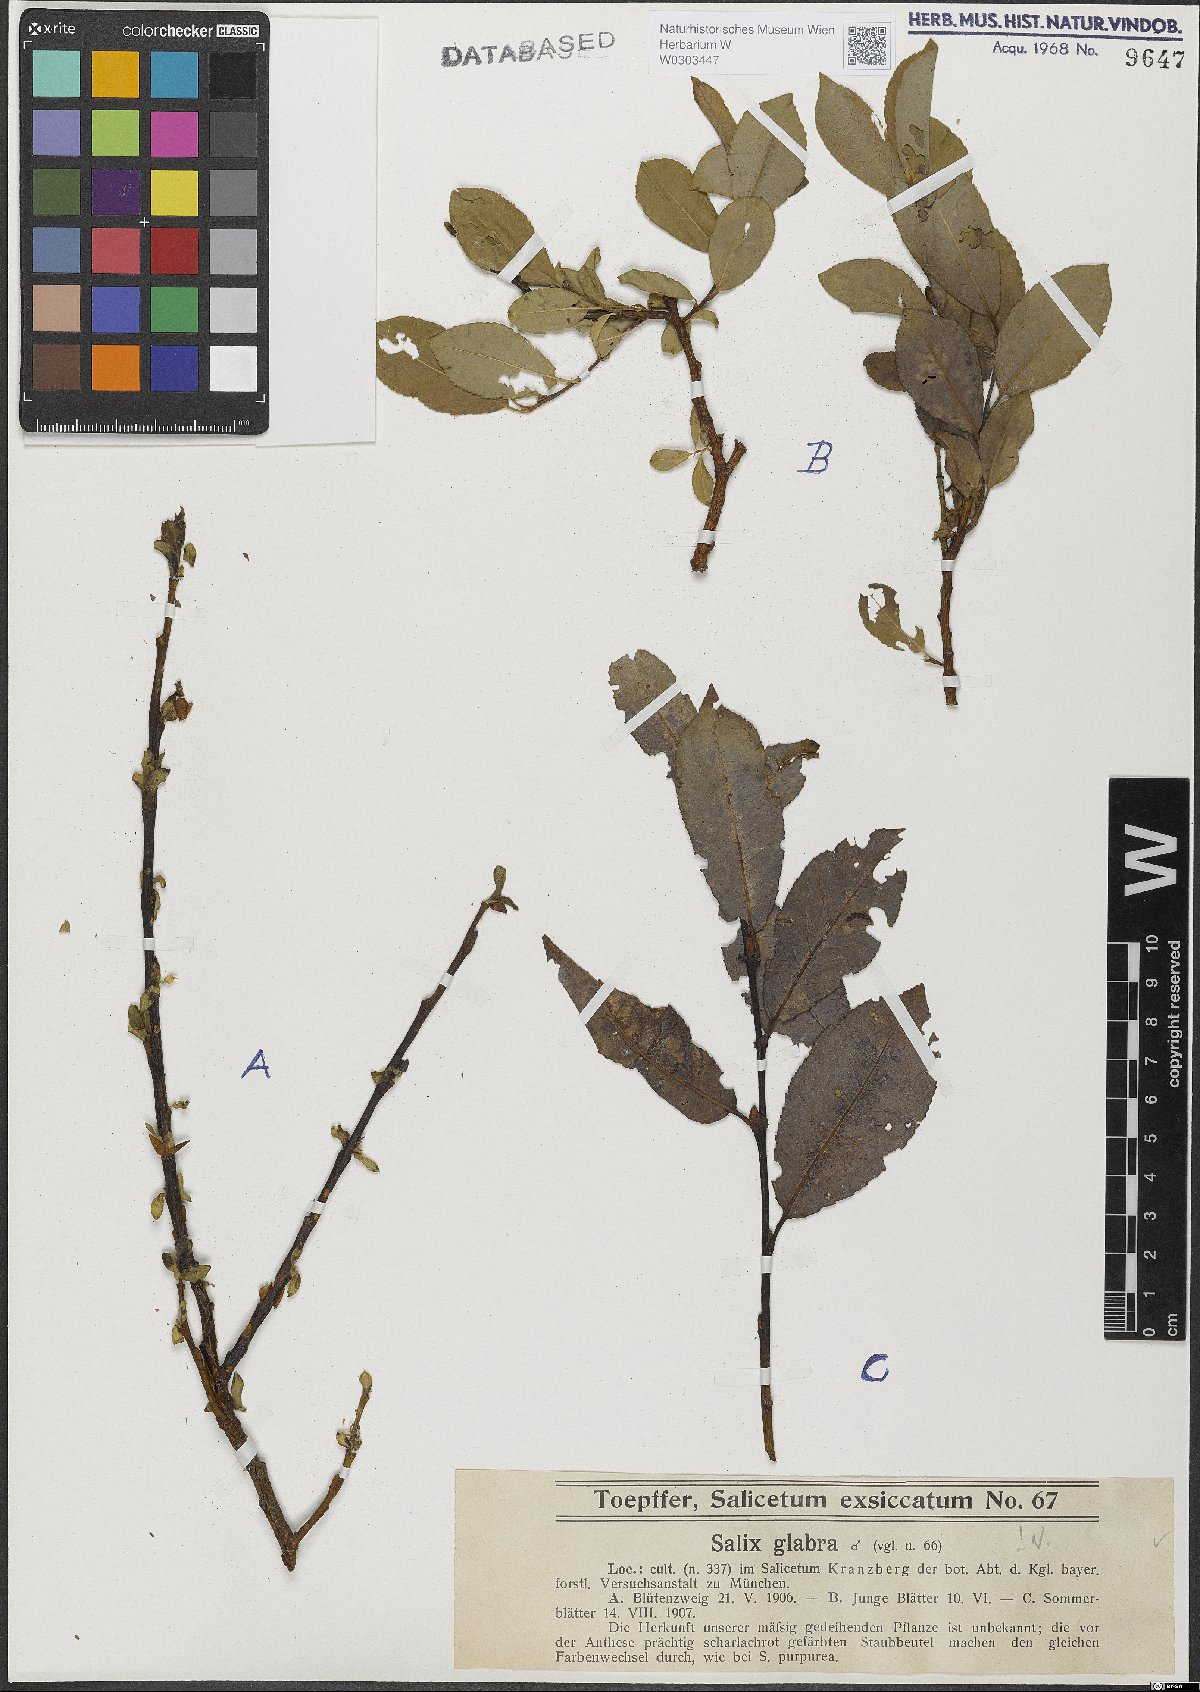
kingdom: Plantae
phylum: Tracheophyta
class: Magnoliopsida
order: Malpighiales
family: Salicaceae
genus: Salix
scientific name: Salix glabra
